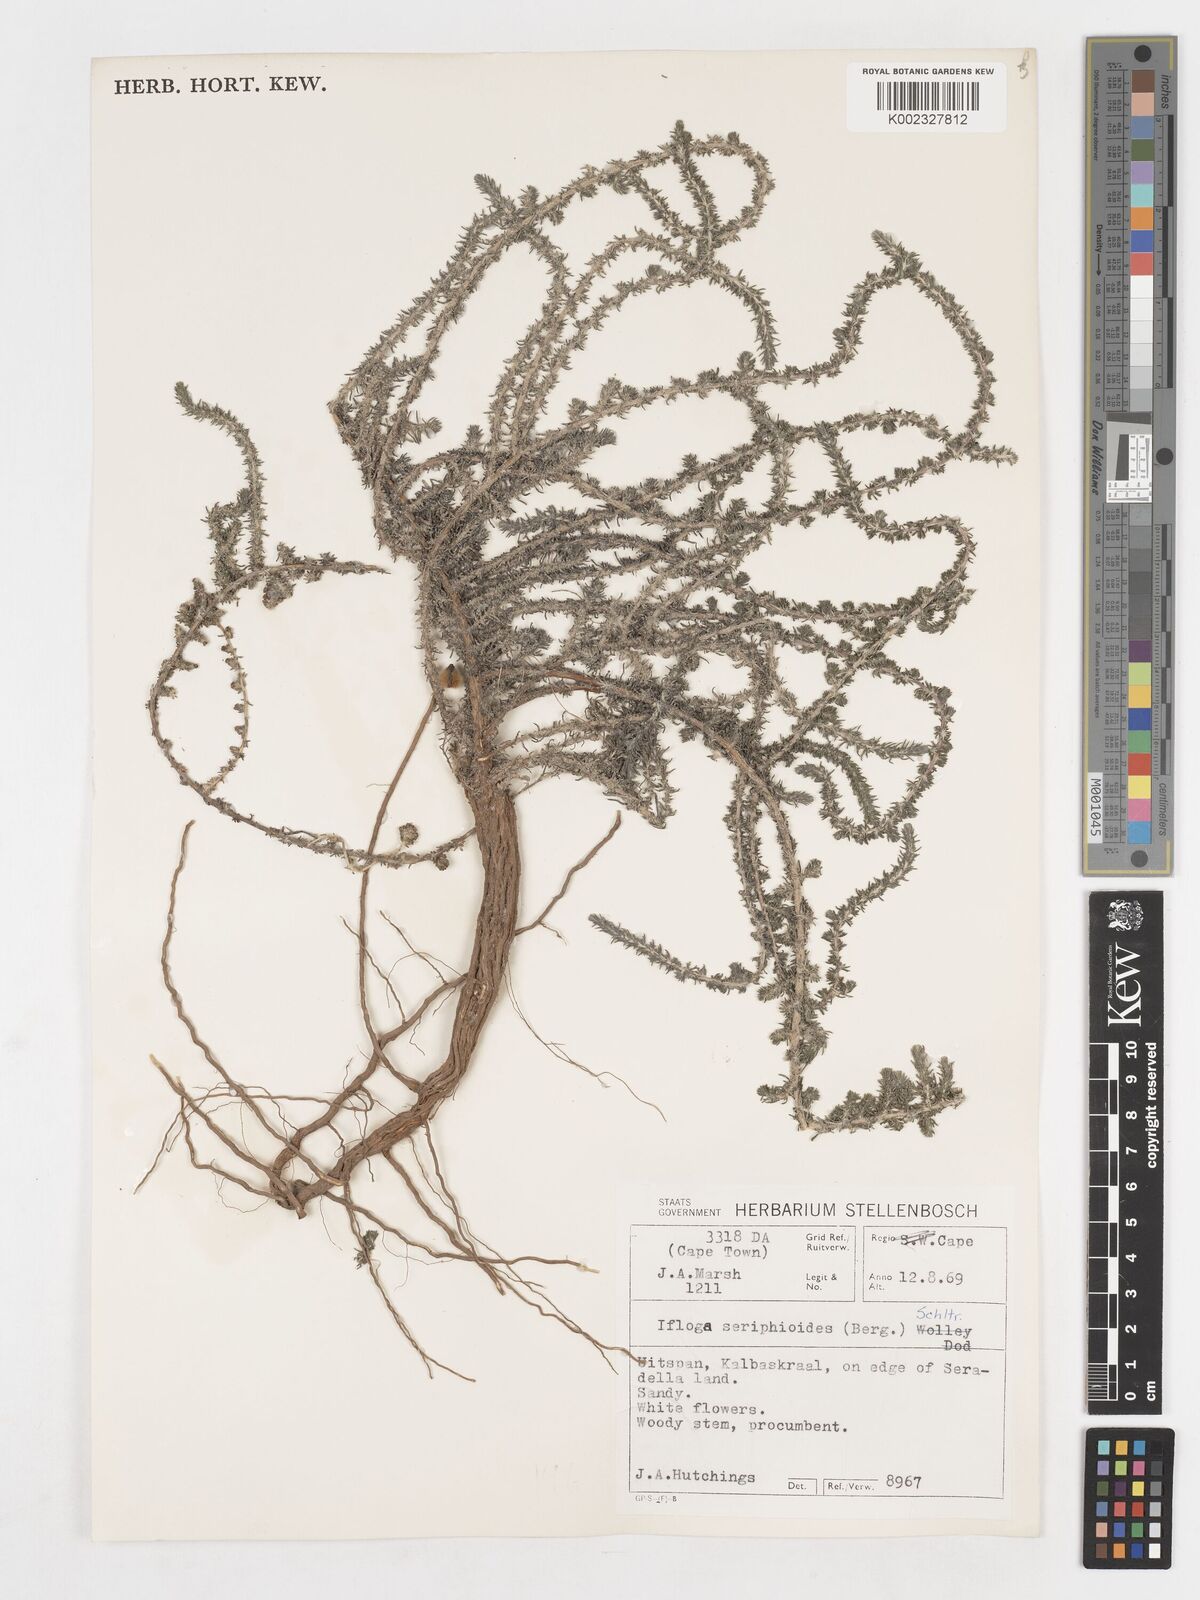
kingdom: Plantae
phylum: Tracheophyta
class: Magnoliopsida
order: Asterales
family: Asteraceae
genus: Ifloga
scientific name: Ifloga ambigua
